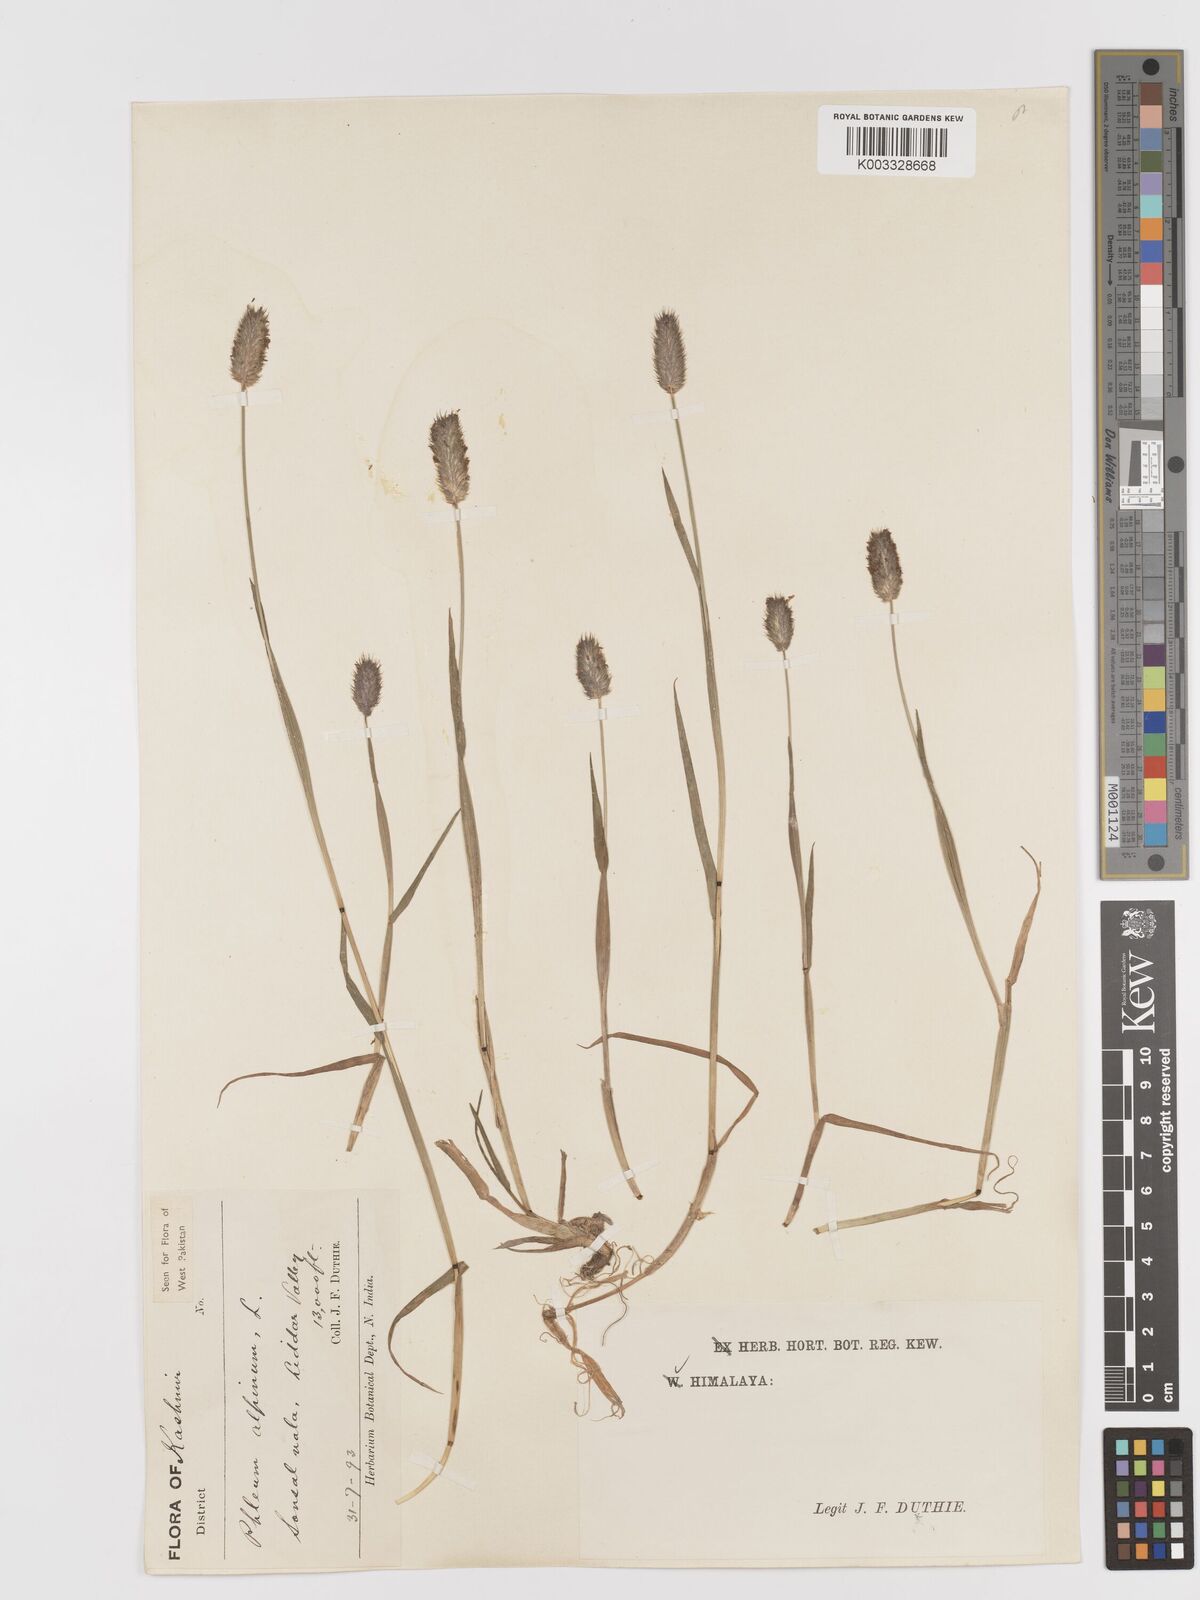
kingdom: Plantae
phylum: Tracheophyta
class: Liliopsida
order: Poales
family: Poaceae
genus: Phleum
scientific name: Phleum alpinum
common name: Alpine cat's-tail
